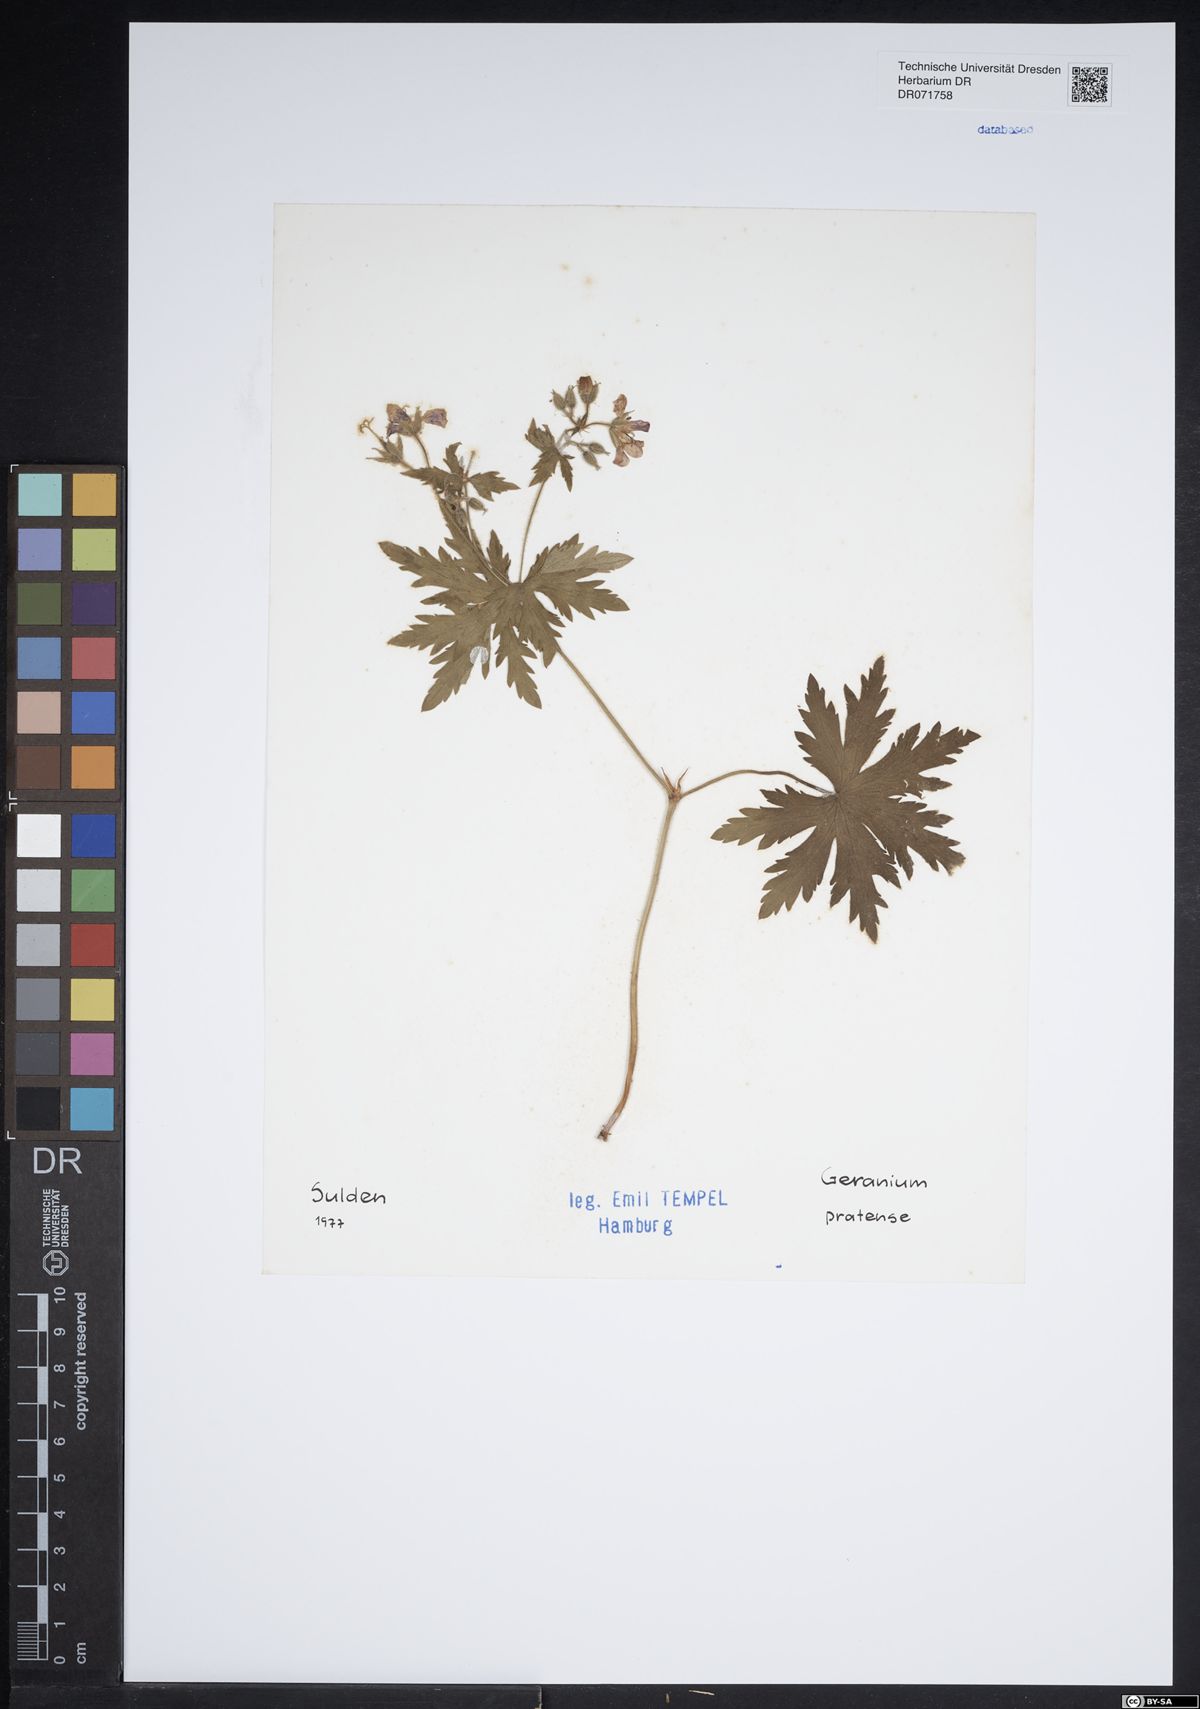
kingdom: Plantae
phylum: Tracheophyta
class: Magnoliopsida
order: Geraniales
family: Geraniaceae
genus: Geranium
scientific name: Geranium pratense
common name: Meadow crane's-bill
